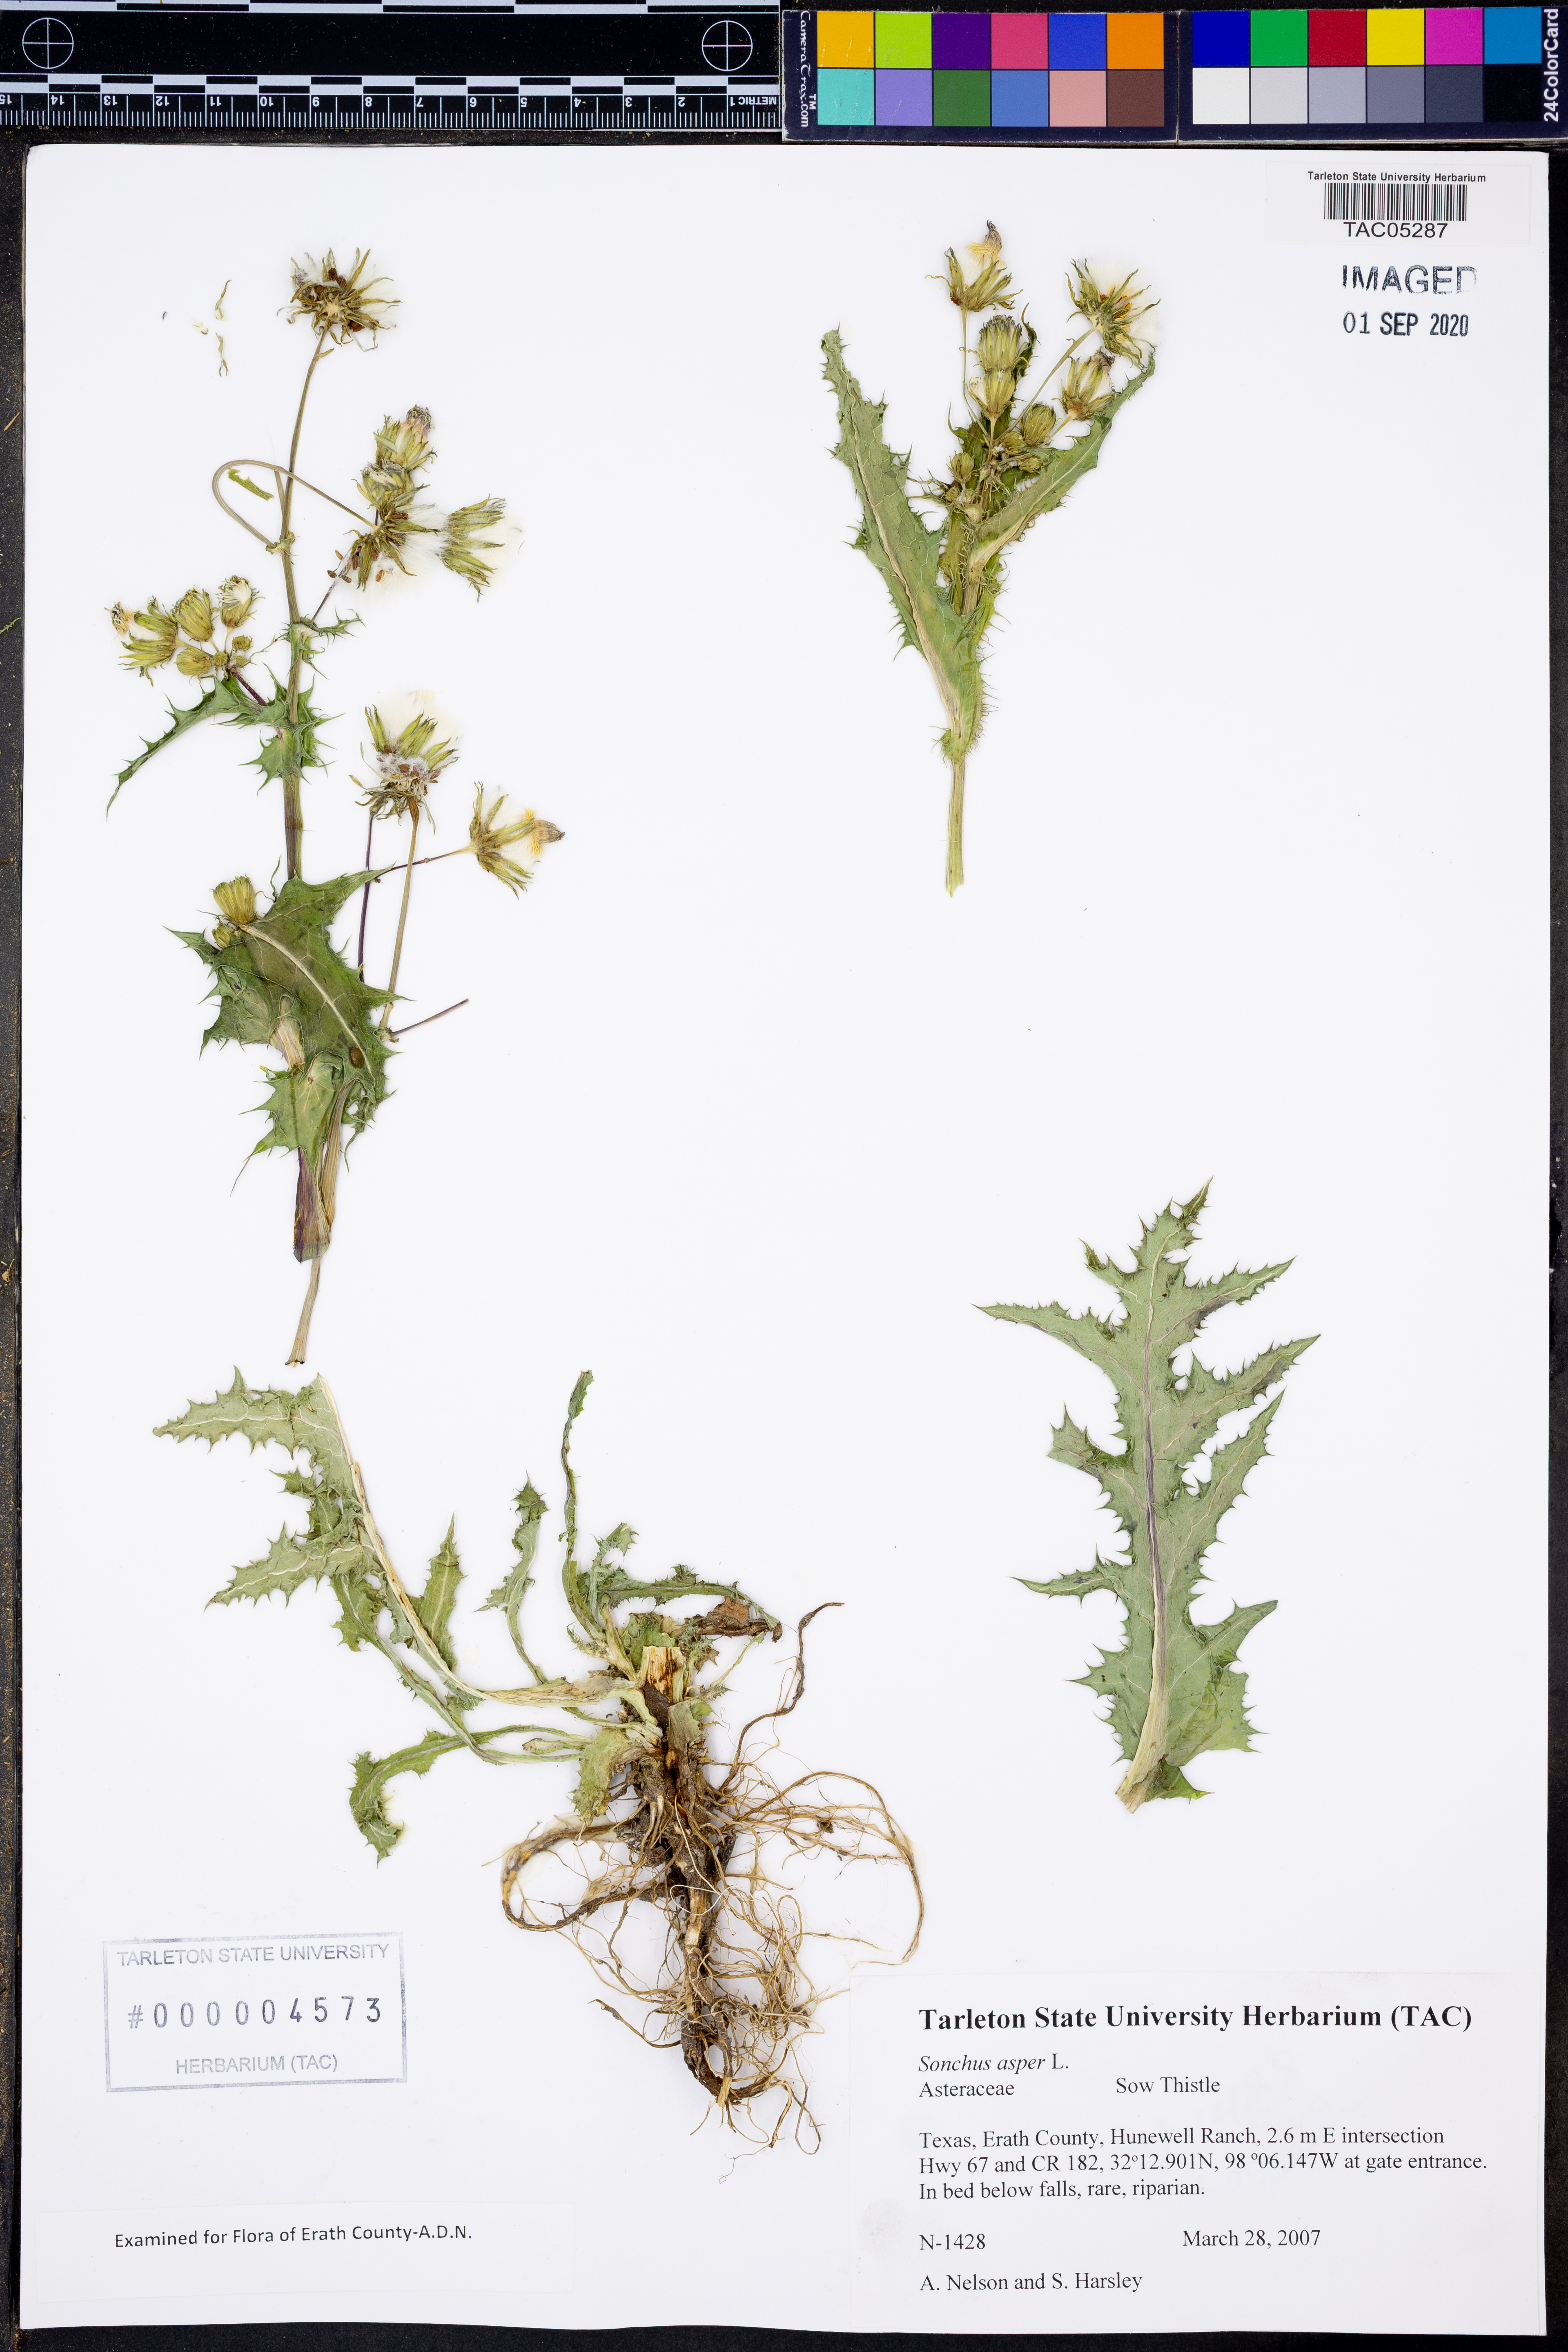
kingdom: Plantae
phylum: Tracheophyta
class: Magnoliopsida
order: Asterales
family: Asteraceae
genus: Sonchus
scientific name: Sonchus asper
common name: Prickly sow-thistle
